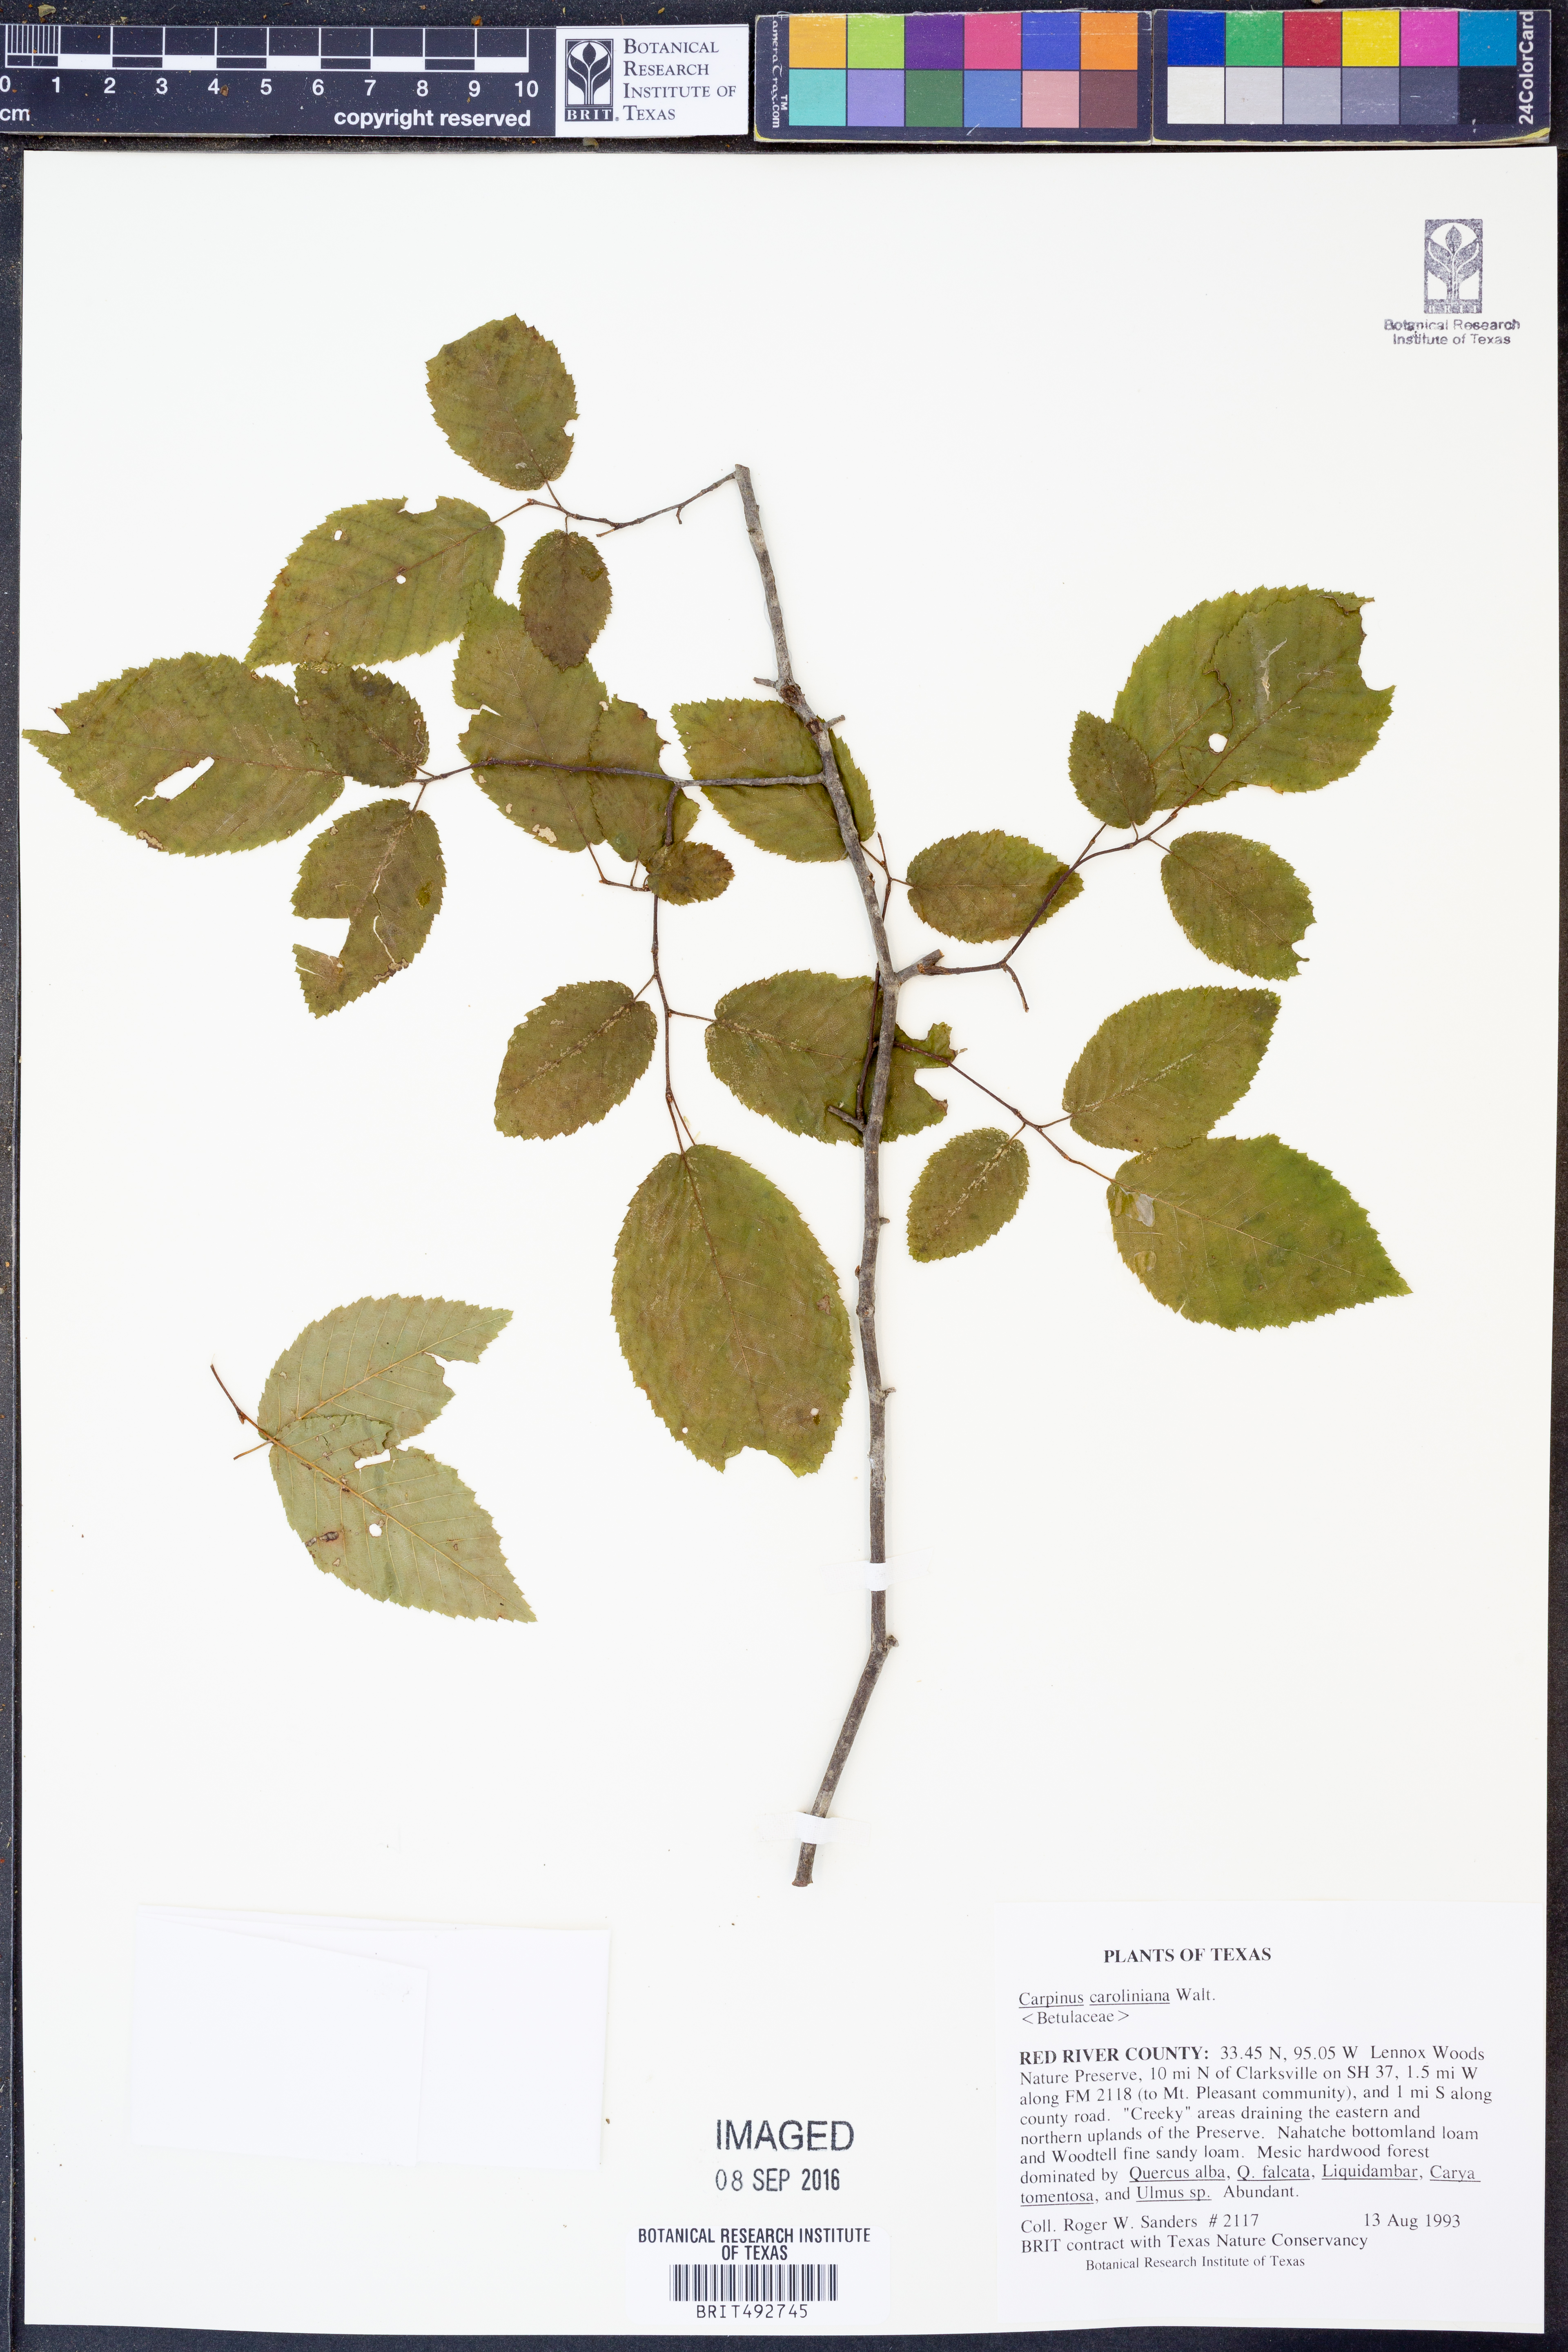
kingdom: Plantae
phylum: Tracheophyta
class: Magnoliopsida
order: Fagales
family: Betulaceae
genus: Carpinus
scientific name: Carpinus caroliniana
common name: American hornbeam
